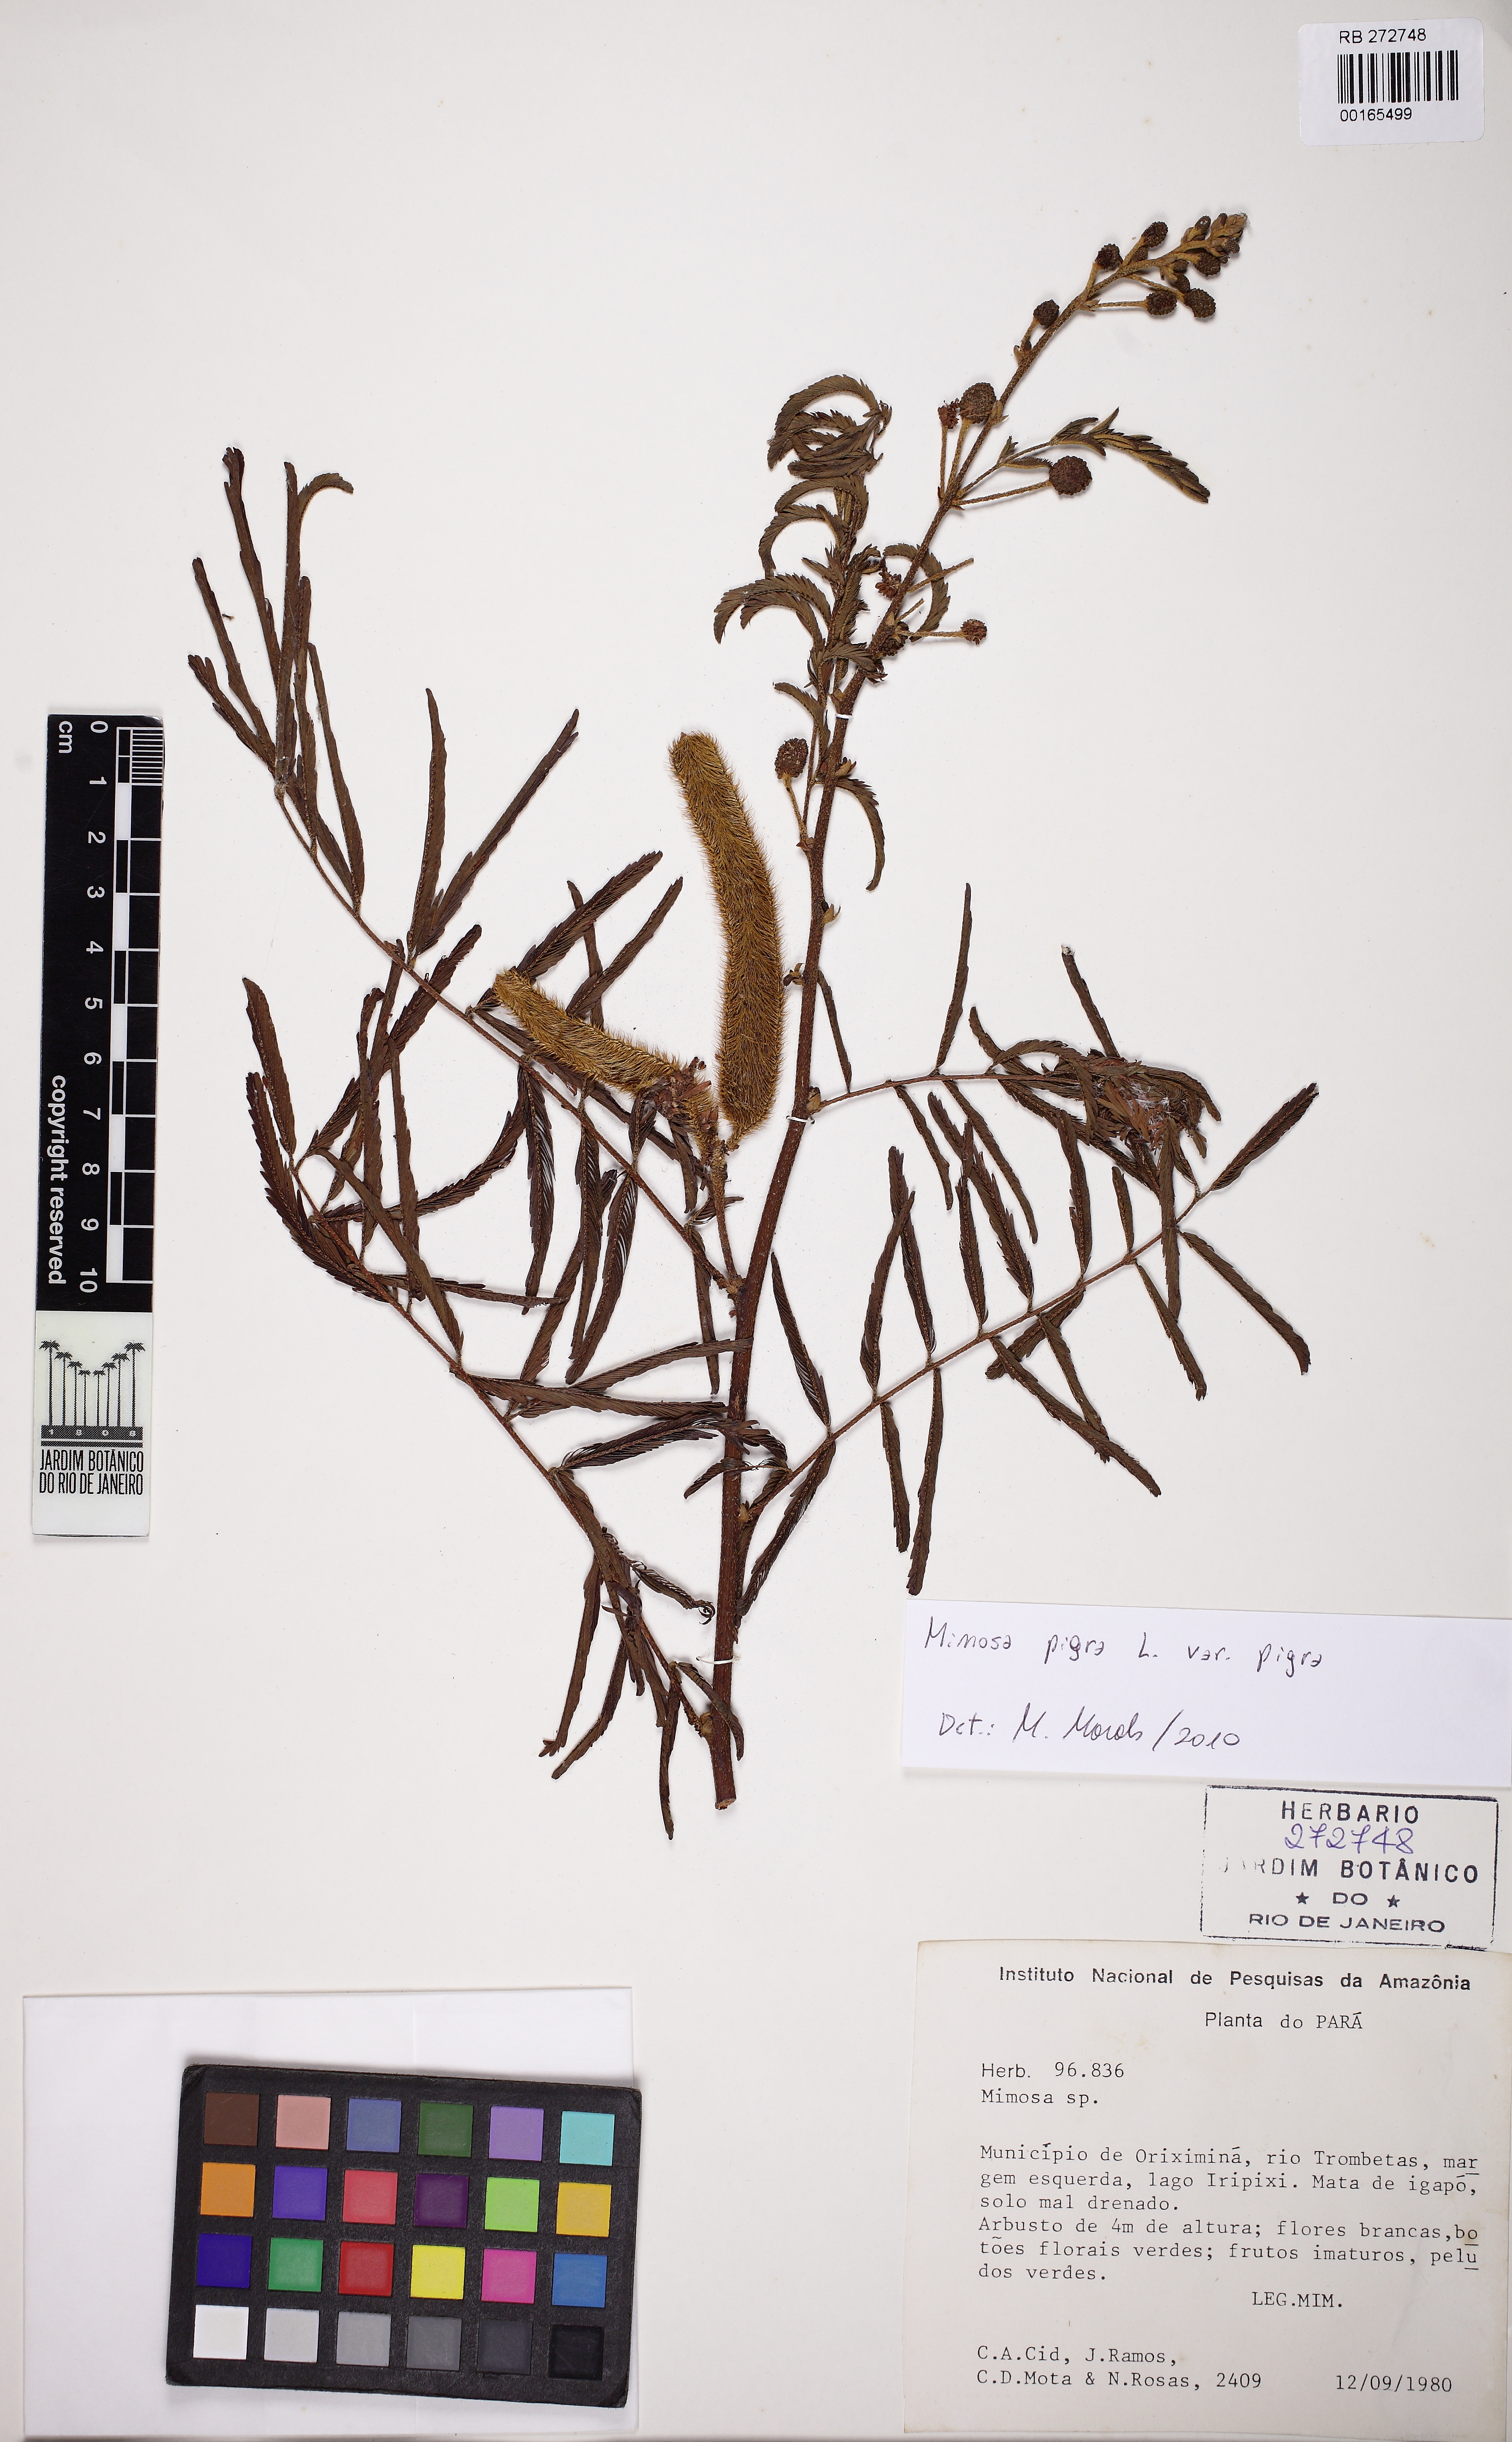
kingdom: Plantae
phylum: Tracheophyta
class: Magnoliopsida
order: Fabales
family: Fabaceae
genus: Mimosa
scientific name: Mimosa pigra
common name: Black mimosa
